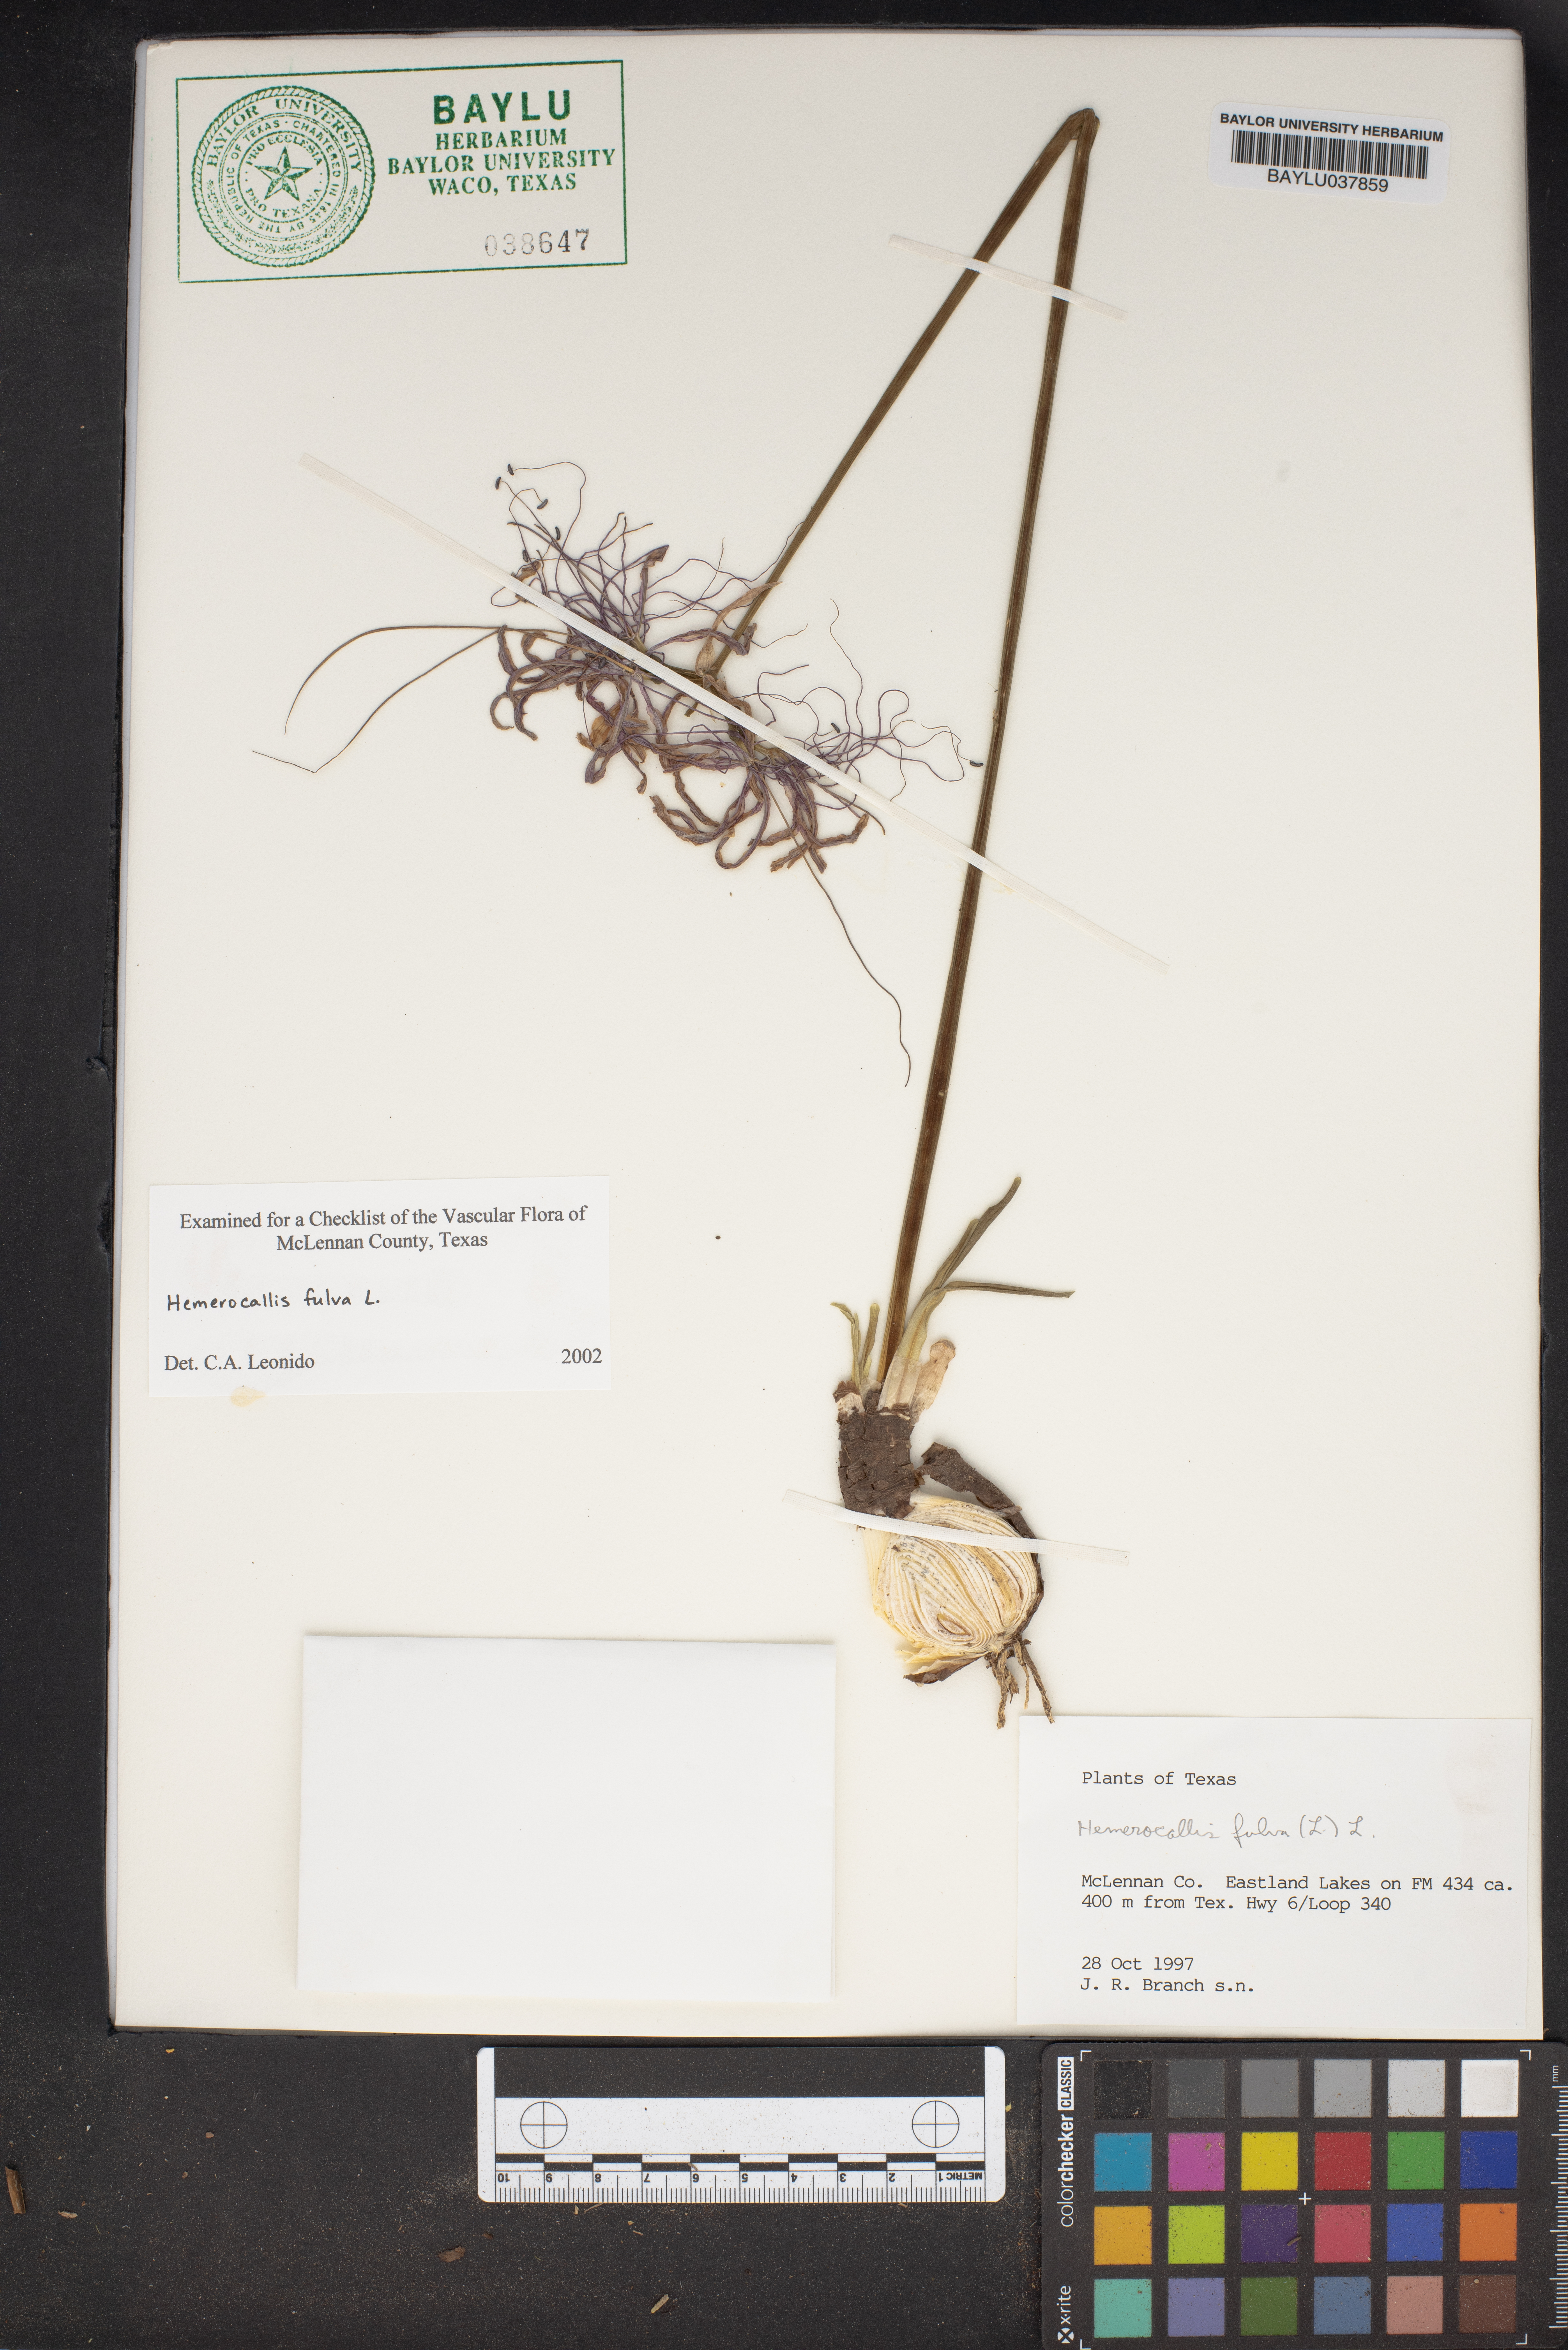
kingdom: Plantae
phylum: Tracheophyta
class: Liliopsida
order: Asparagales
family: Asphodelaceae
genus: Hemerocallis
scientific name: Hemerocallis fulva
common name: Orange day-lily
